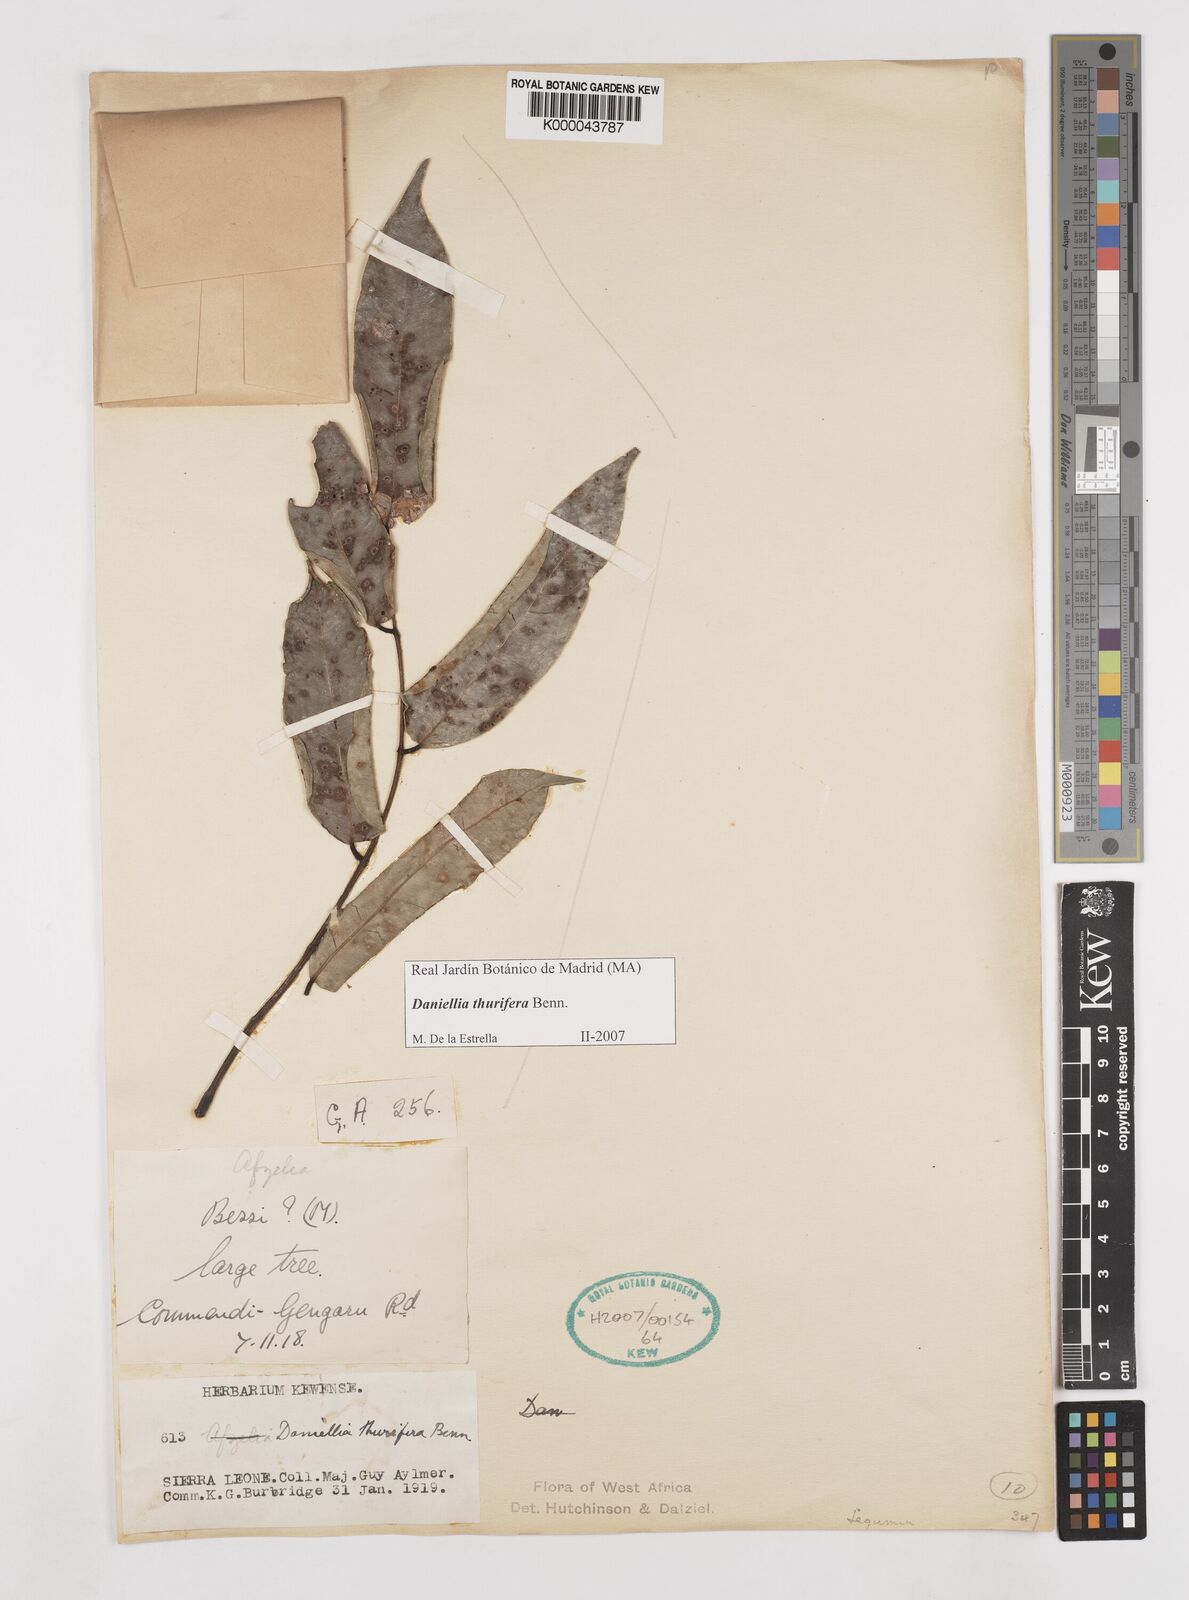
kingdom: Plantae
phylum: Tracheophyta
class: Magnoliopsida
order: Fabales
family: Fabaceae
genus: Daniellia
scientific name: Daniellia thurifera
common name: Sudan copal
